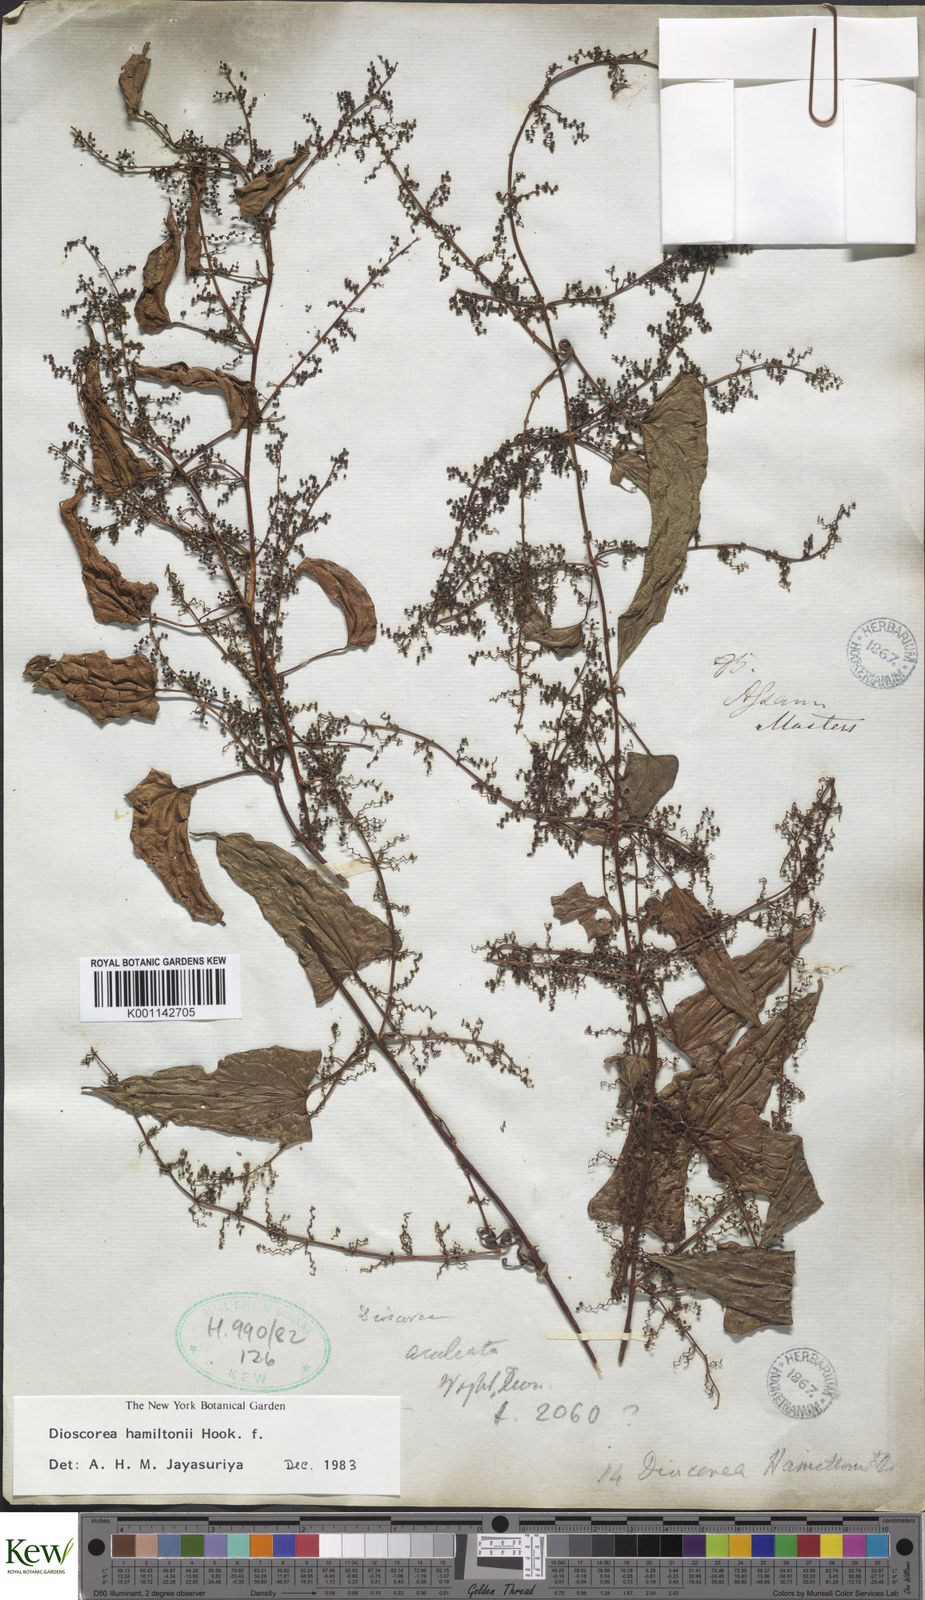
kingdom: Plantae
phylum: Tracheophyta
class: Liliopsida
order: Dioscoreales
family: Dioscoreaceae
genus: Dioscorea
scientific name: Dioscorea hamiltonii
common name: Mountain yam
